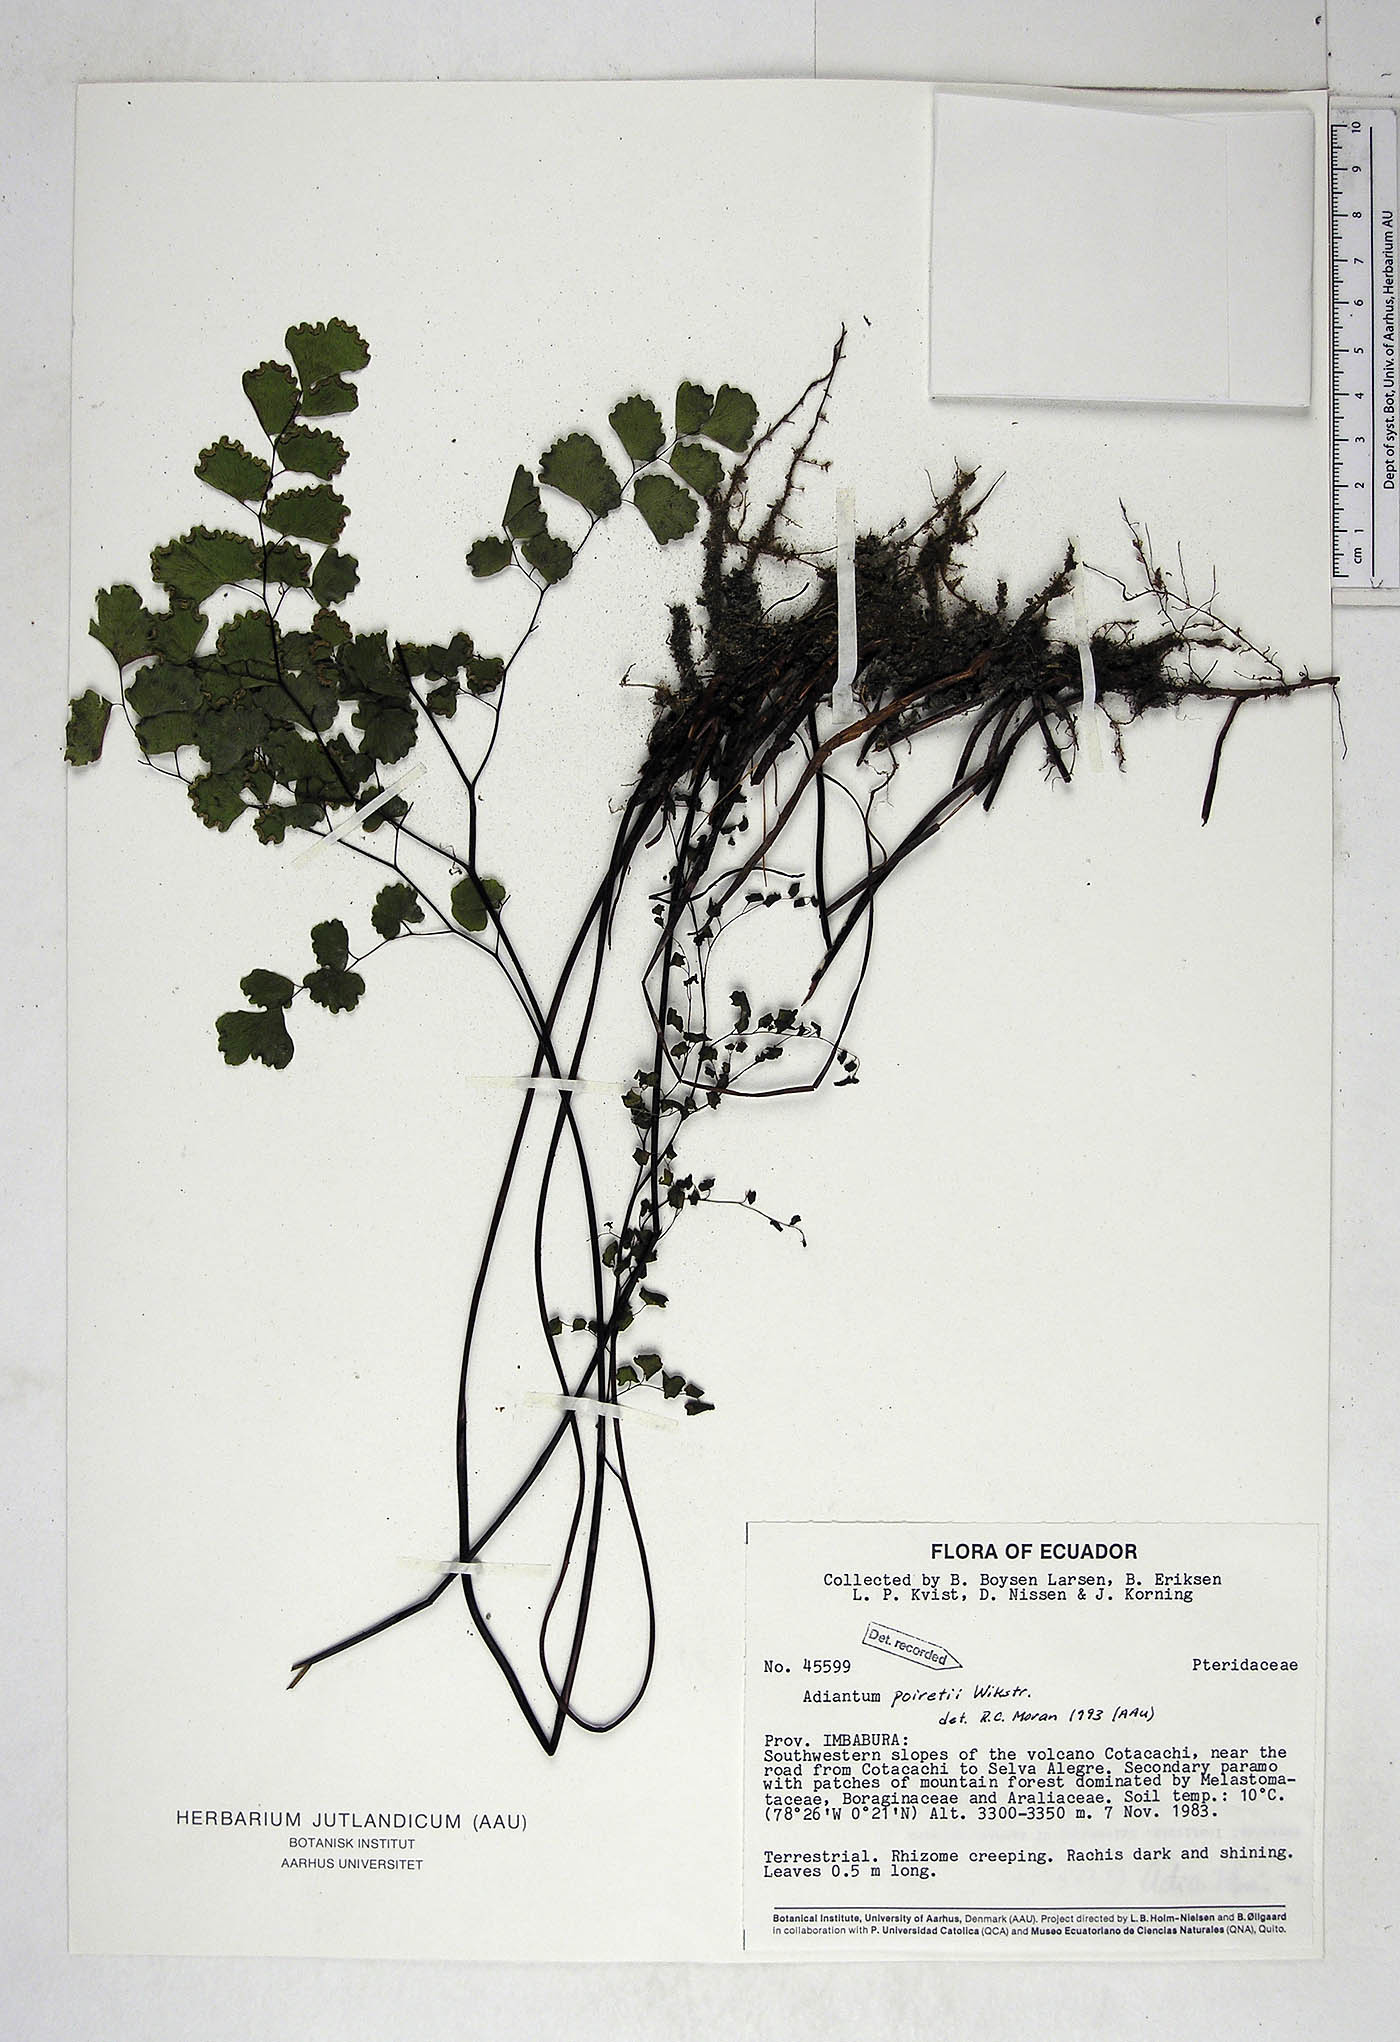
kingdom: Plantae
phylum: Tracheophyta
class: Polypodiopsida
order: Polypodiales
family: Pteridaceae
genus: Adiantum
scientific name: Adiantum poiretii
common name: Mexican maidenhair
